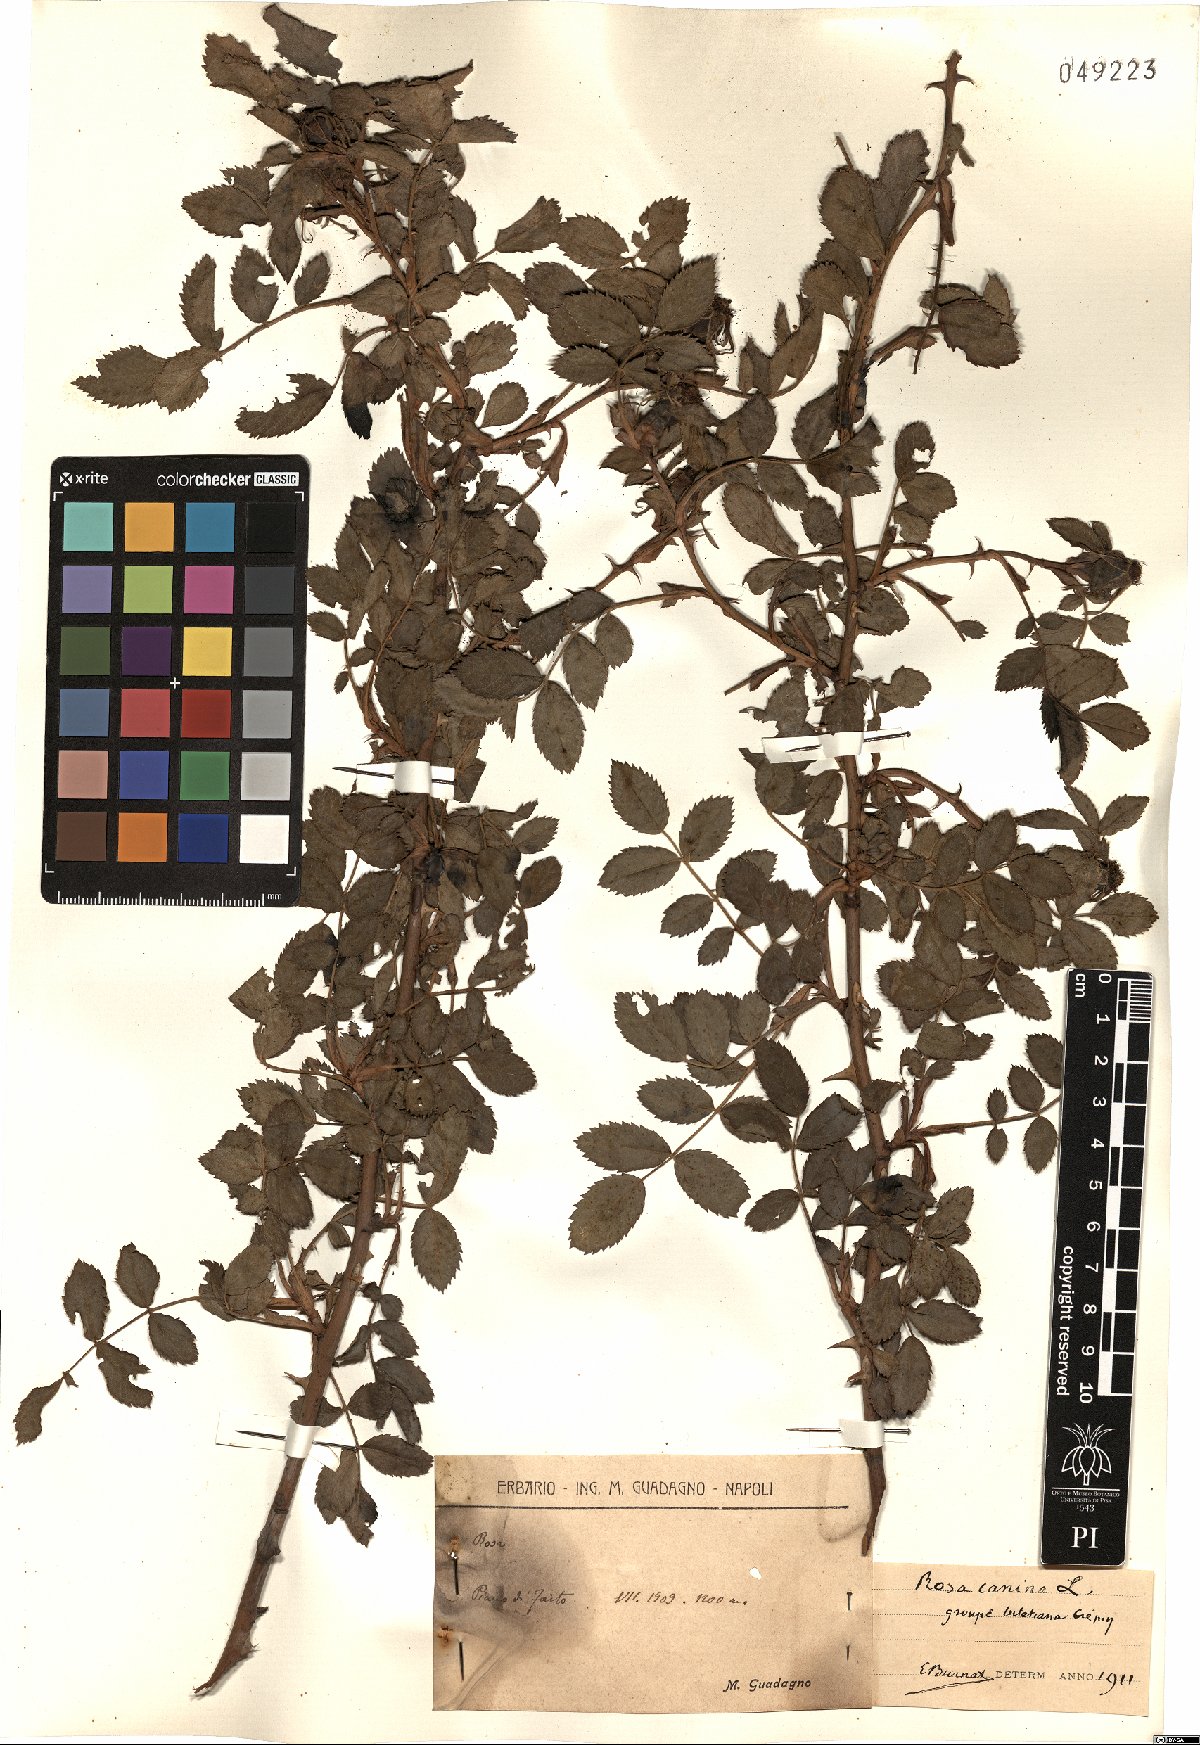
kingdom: Plantae
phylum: Tracheophyta
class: Magnoliopsida
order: Rosales
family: Rosaceae
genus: Rosa
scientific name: Rosa canina
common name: Dog rose
